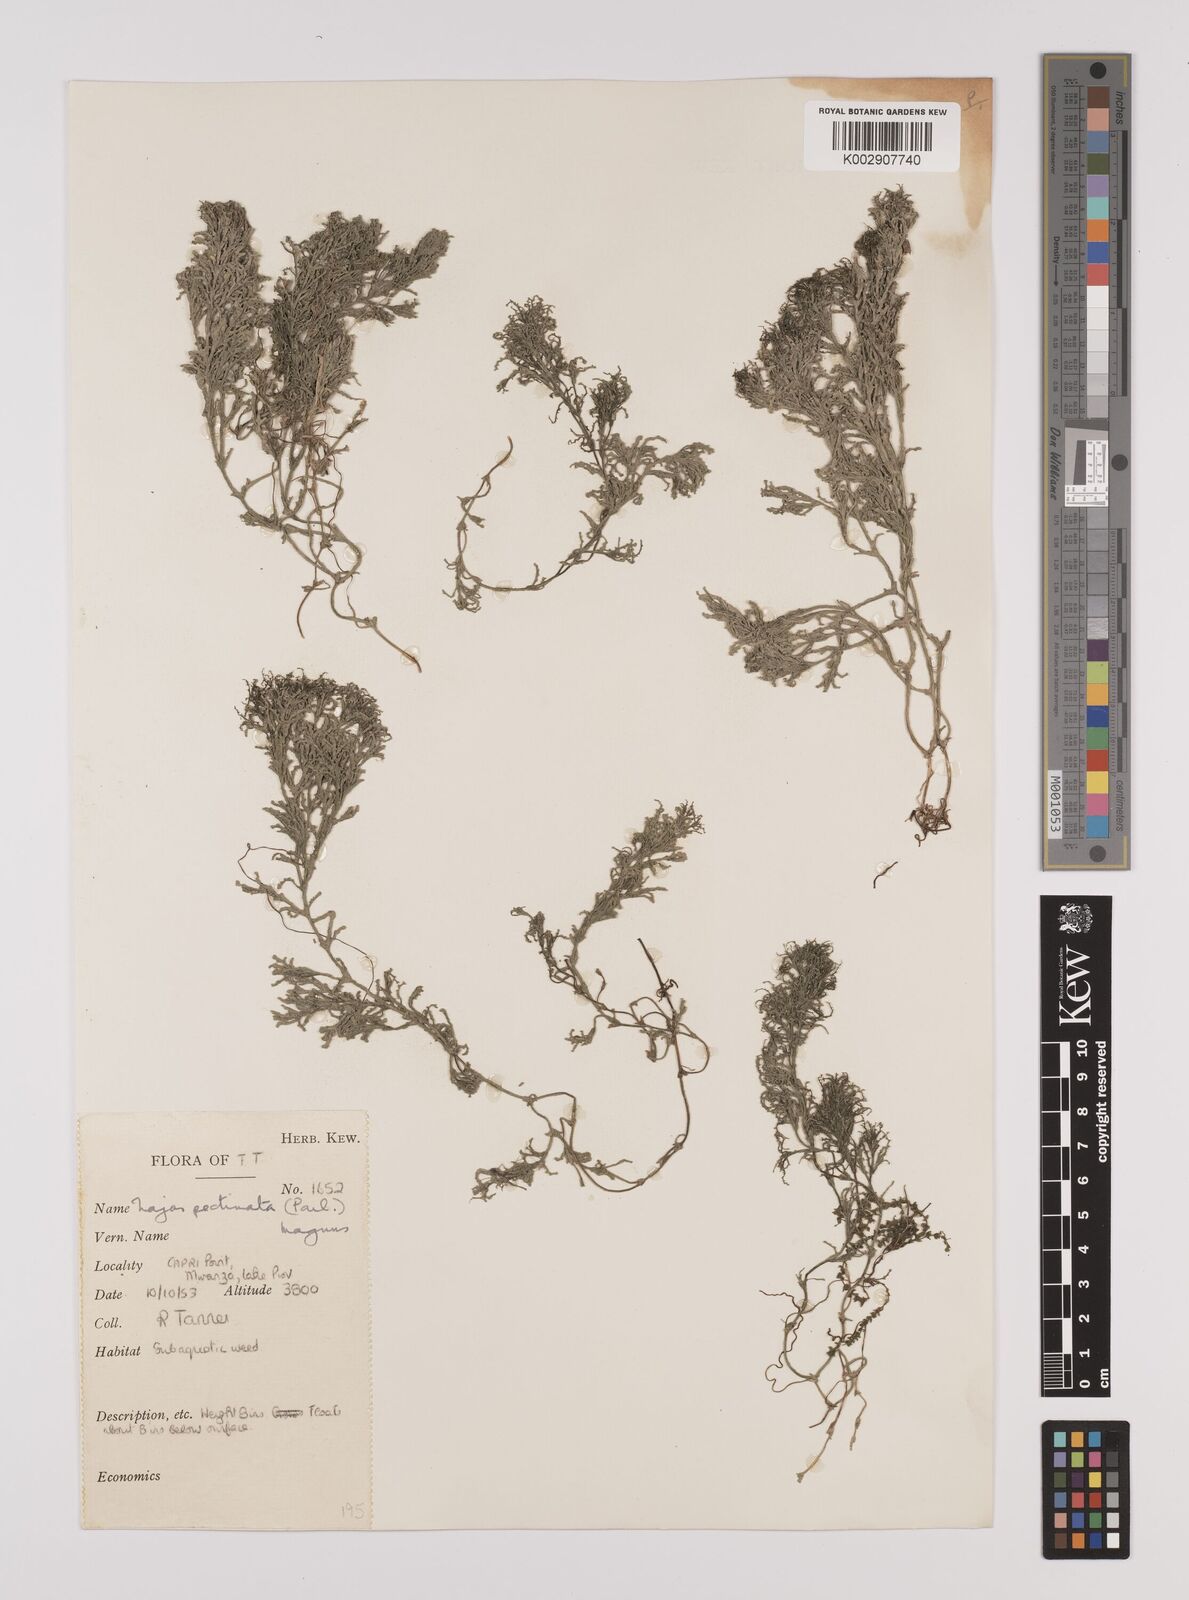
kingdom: Plantae
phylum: Tracheophyta
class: Liliopsida
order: Alismatales
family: Hydrocharitaceae
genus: Najas
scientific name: Najas horrida
